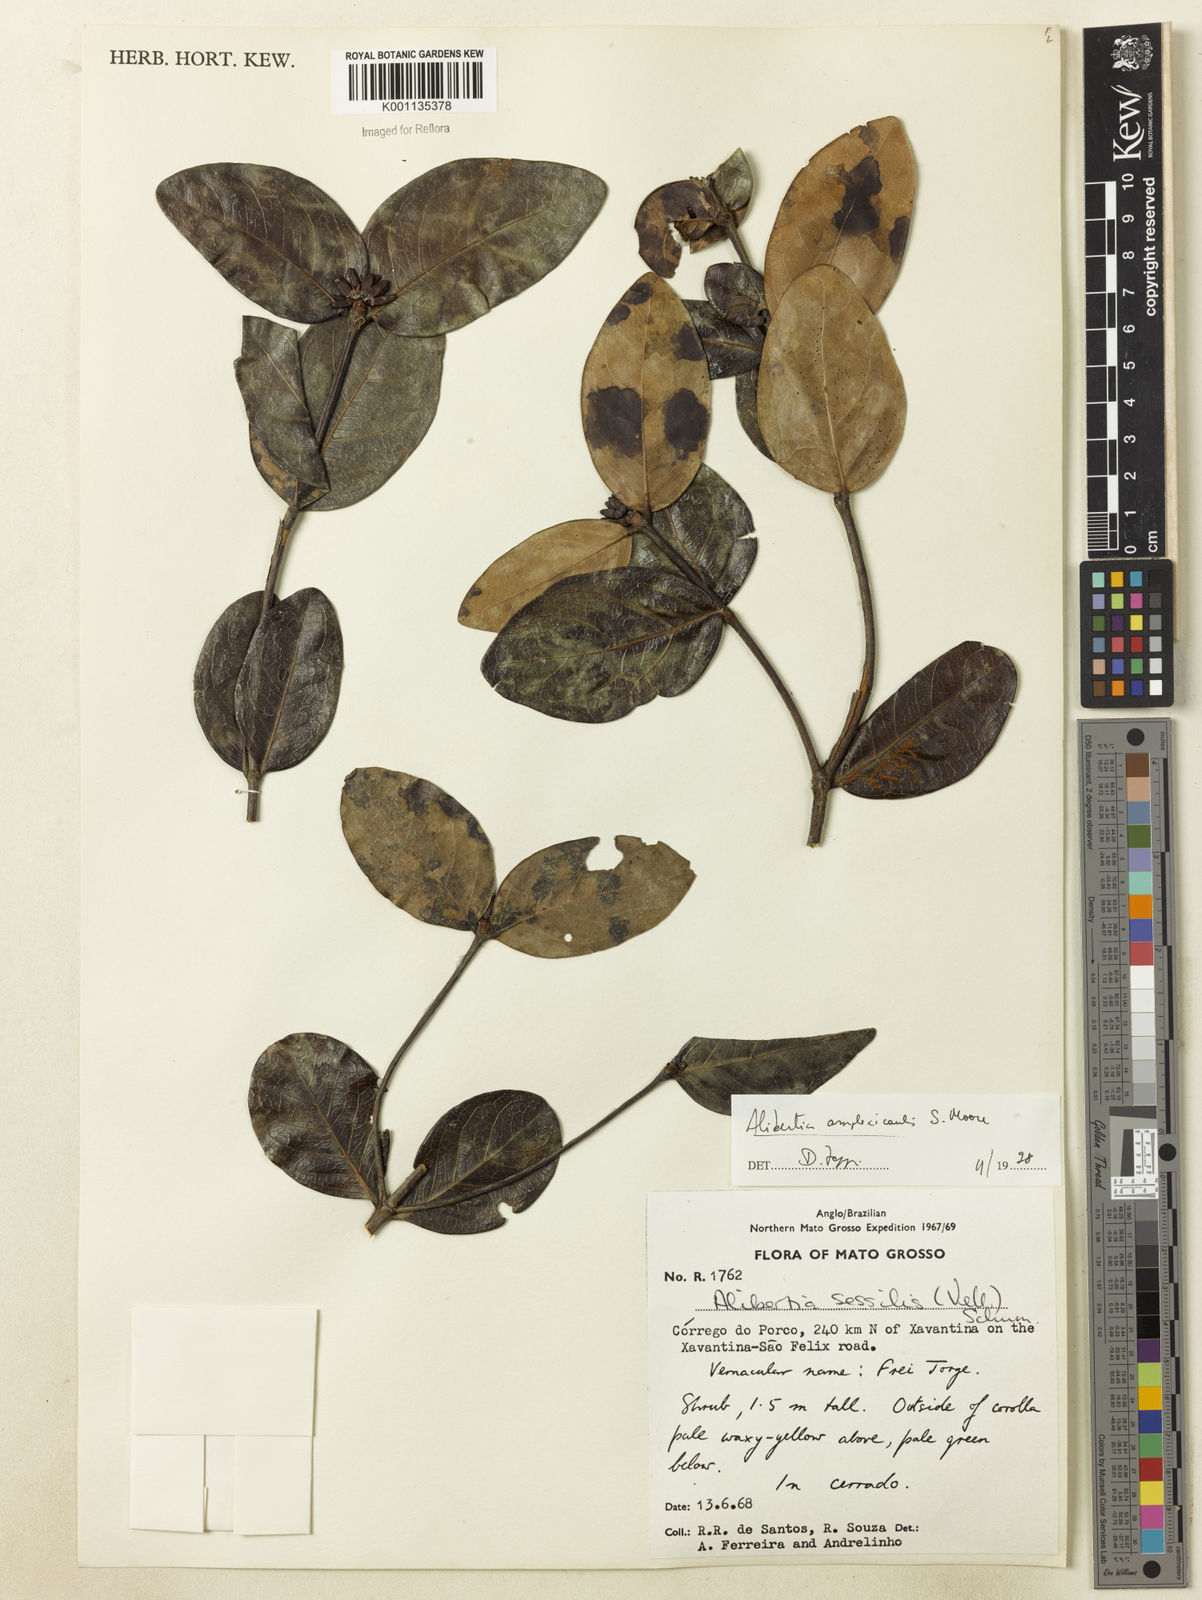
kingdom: Plantae
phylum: Tracheophyta
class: Magnoliopsida
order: Gentianales
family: Rubiaceae
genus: Cordiera
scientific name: Cordiera humilis
